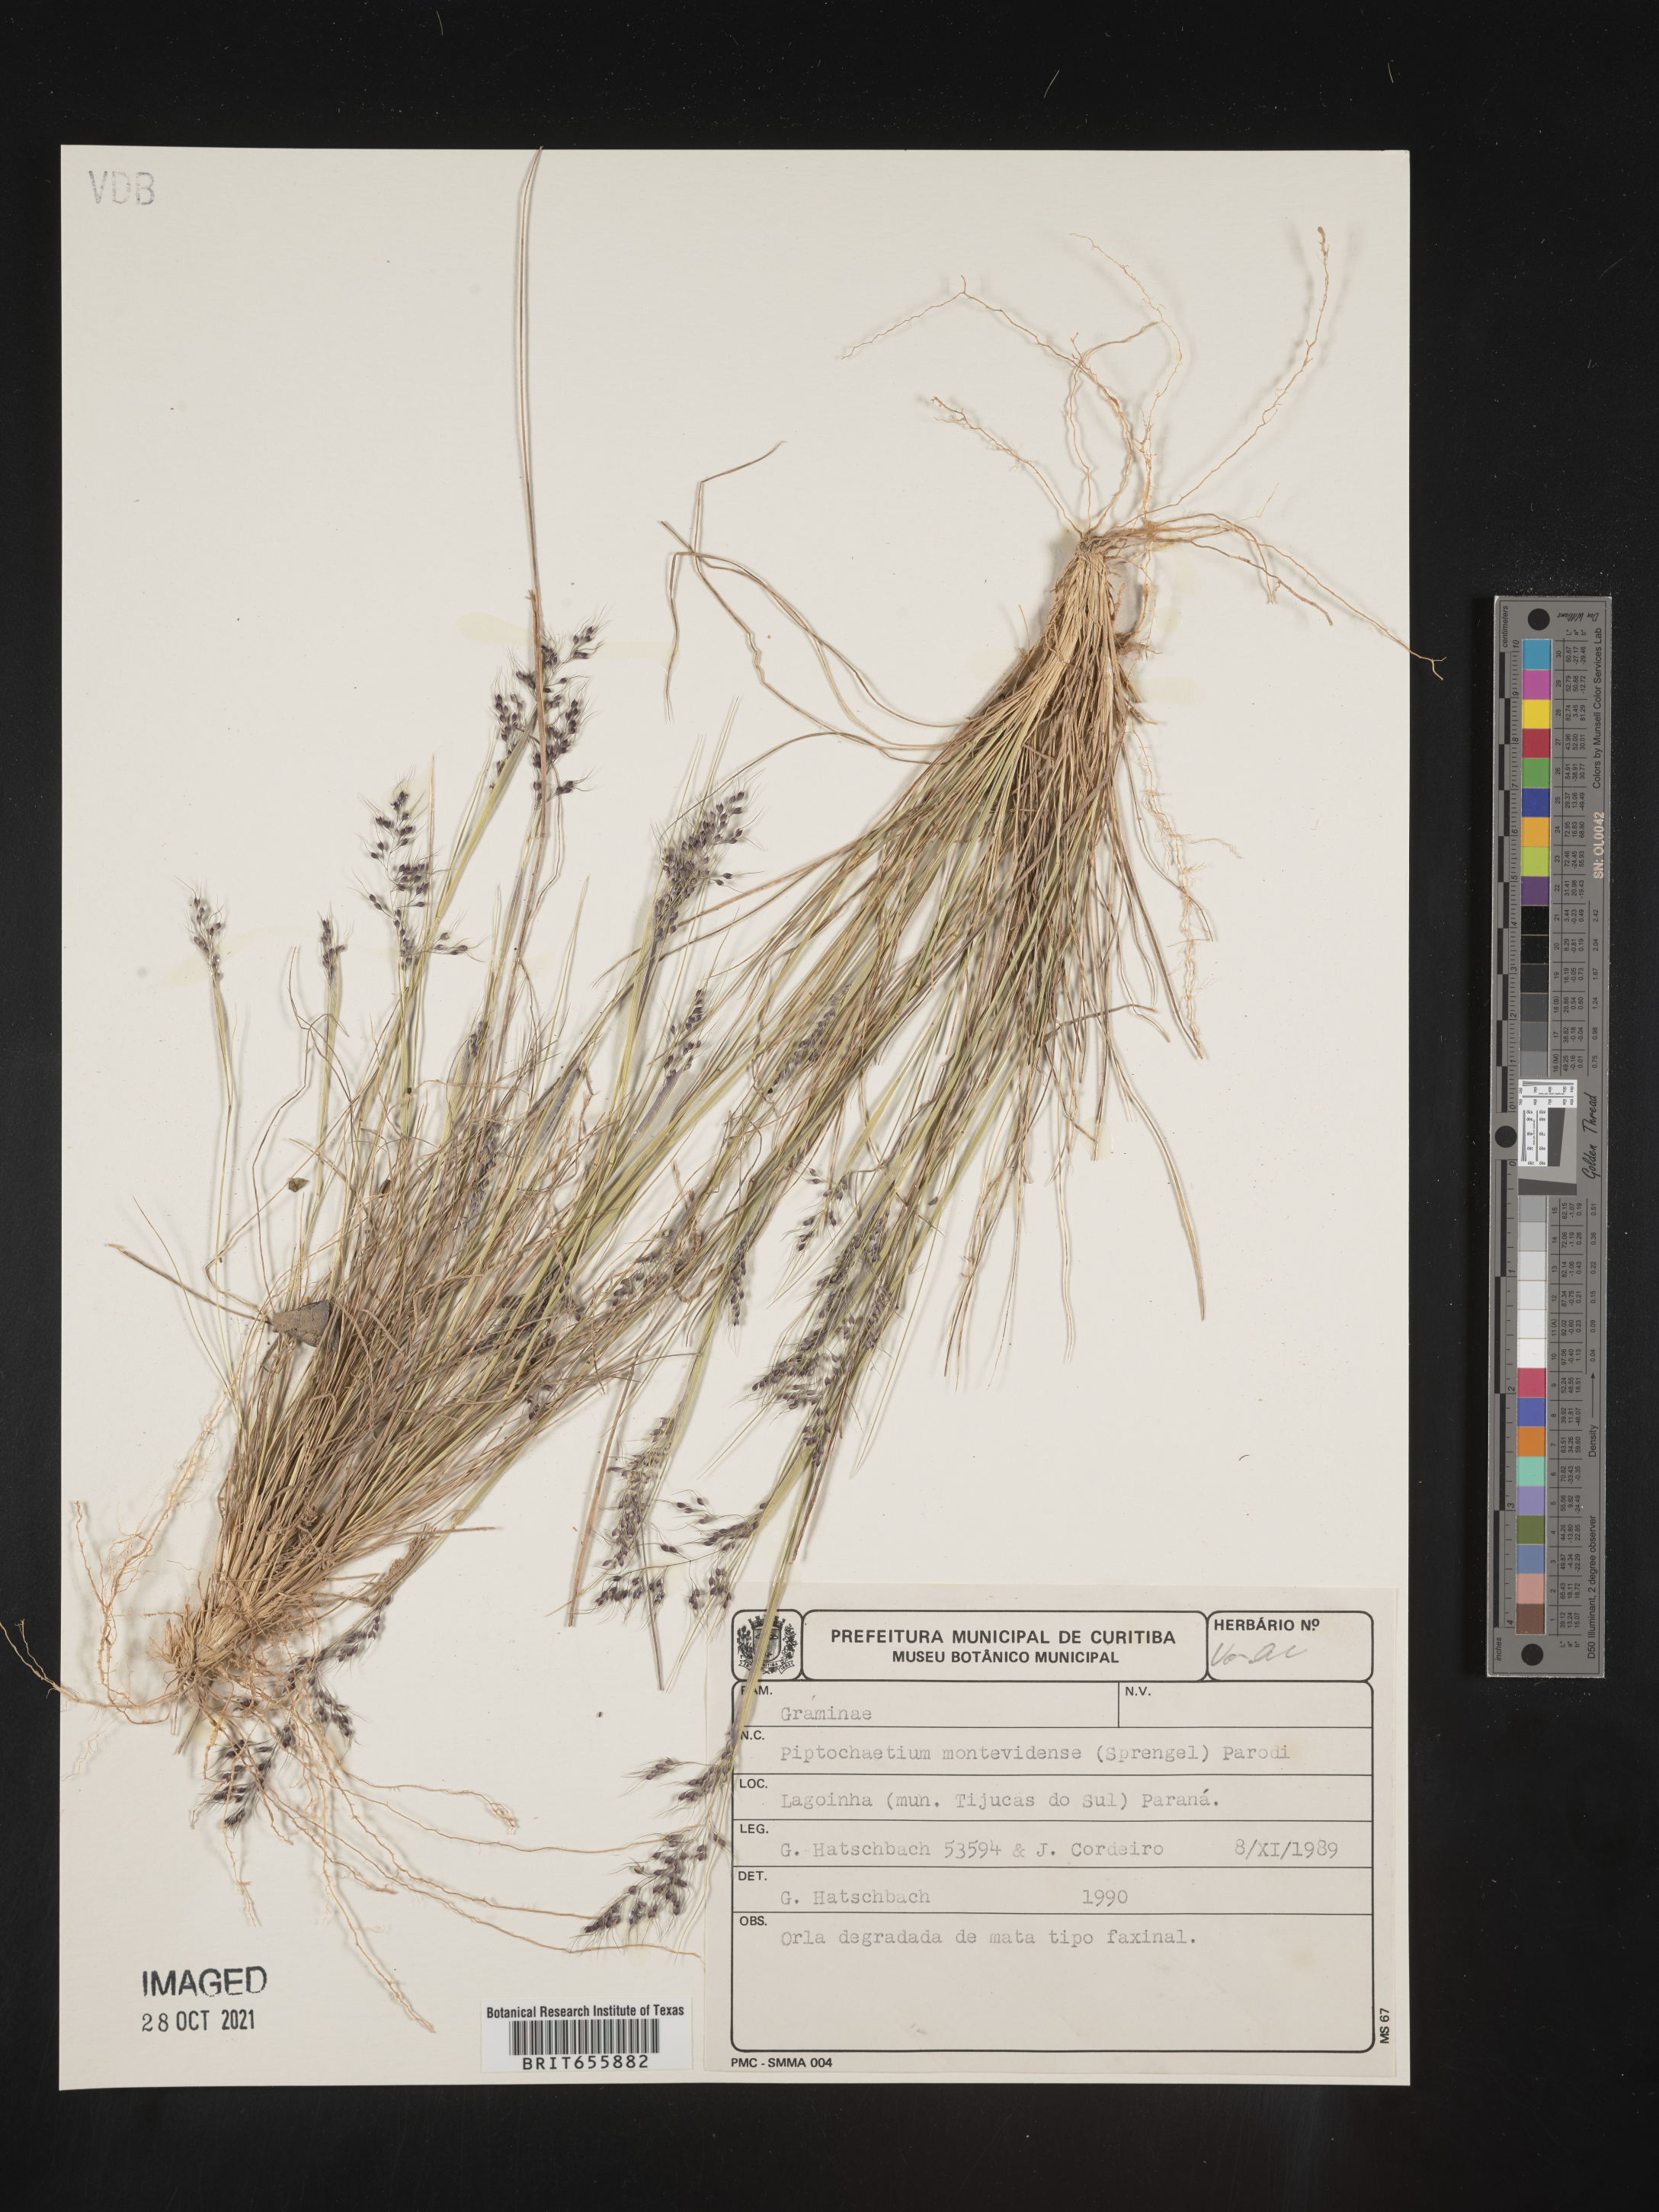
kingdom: Plantae
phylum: Tracheophyta
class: Liliopsida
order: Poales
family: Poaceae
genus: Piptochaetium
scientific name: Piptochaetium
